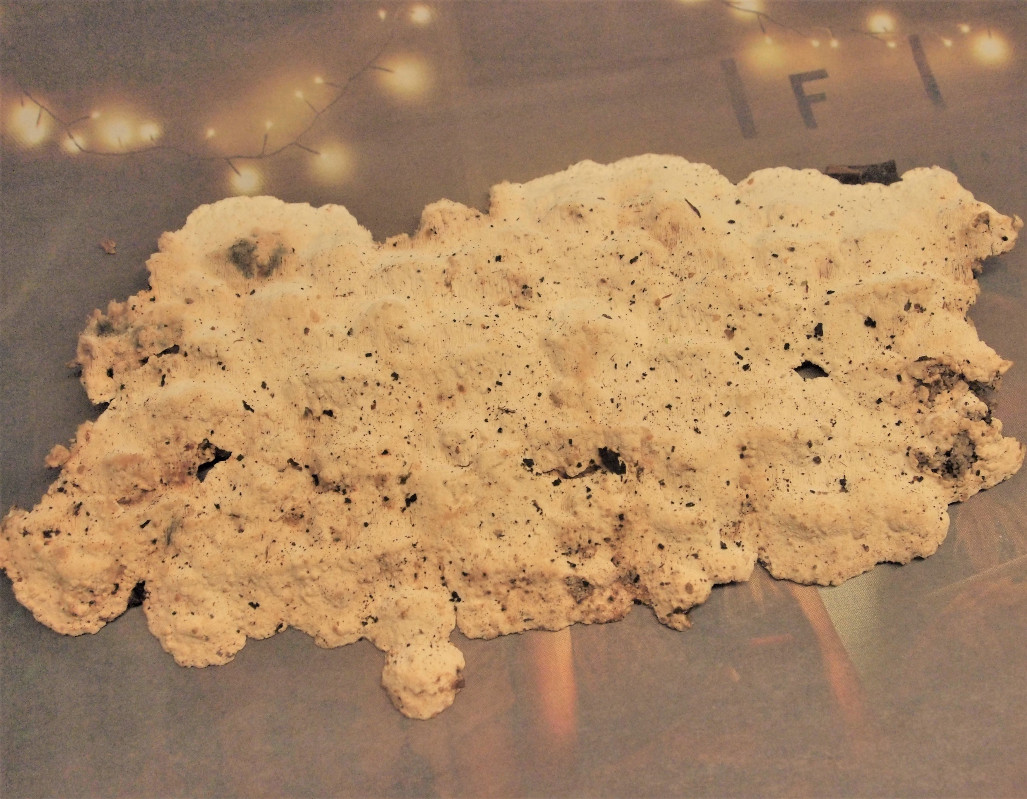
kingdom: Fungi
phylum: Basidiomycota
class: Agaricomycetes
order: Polyporales
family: Fomitopsidaceae
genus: Neoantrodia
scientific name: Neoantrodia serialis
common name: række-sejporesvamp
